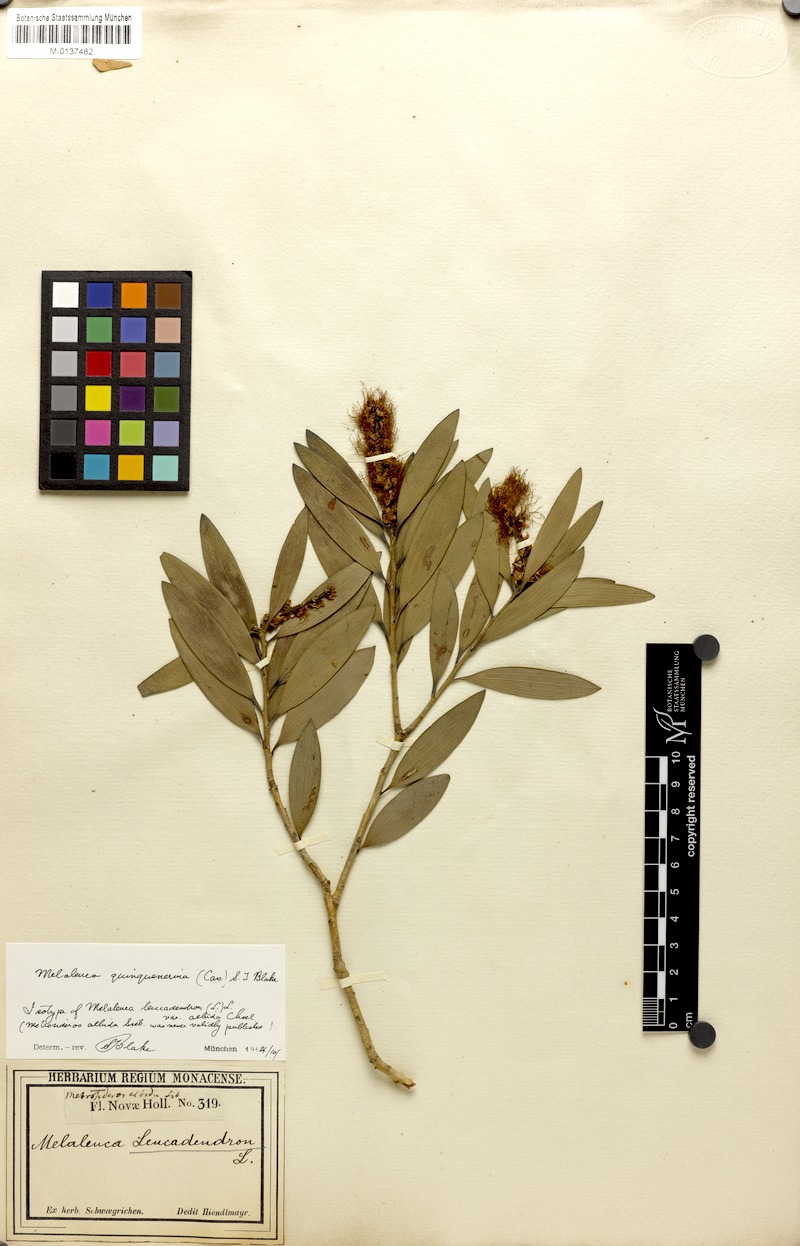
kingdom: Plantae
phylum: Tracheophyta
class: Magnoliopsida
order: Myrtales
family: Myrtaceae
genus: Melaleuca
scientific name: Melaleuca quinquenervia
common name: Punktree
